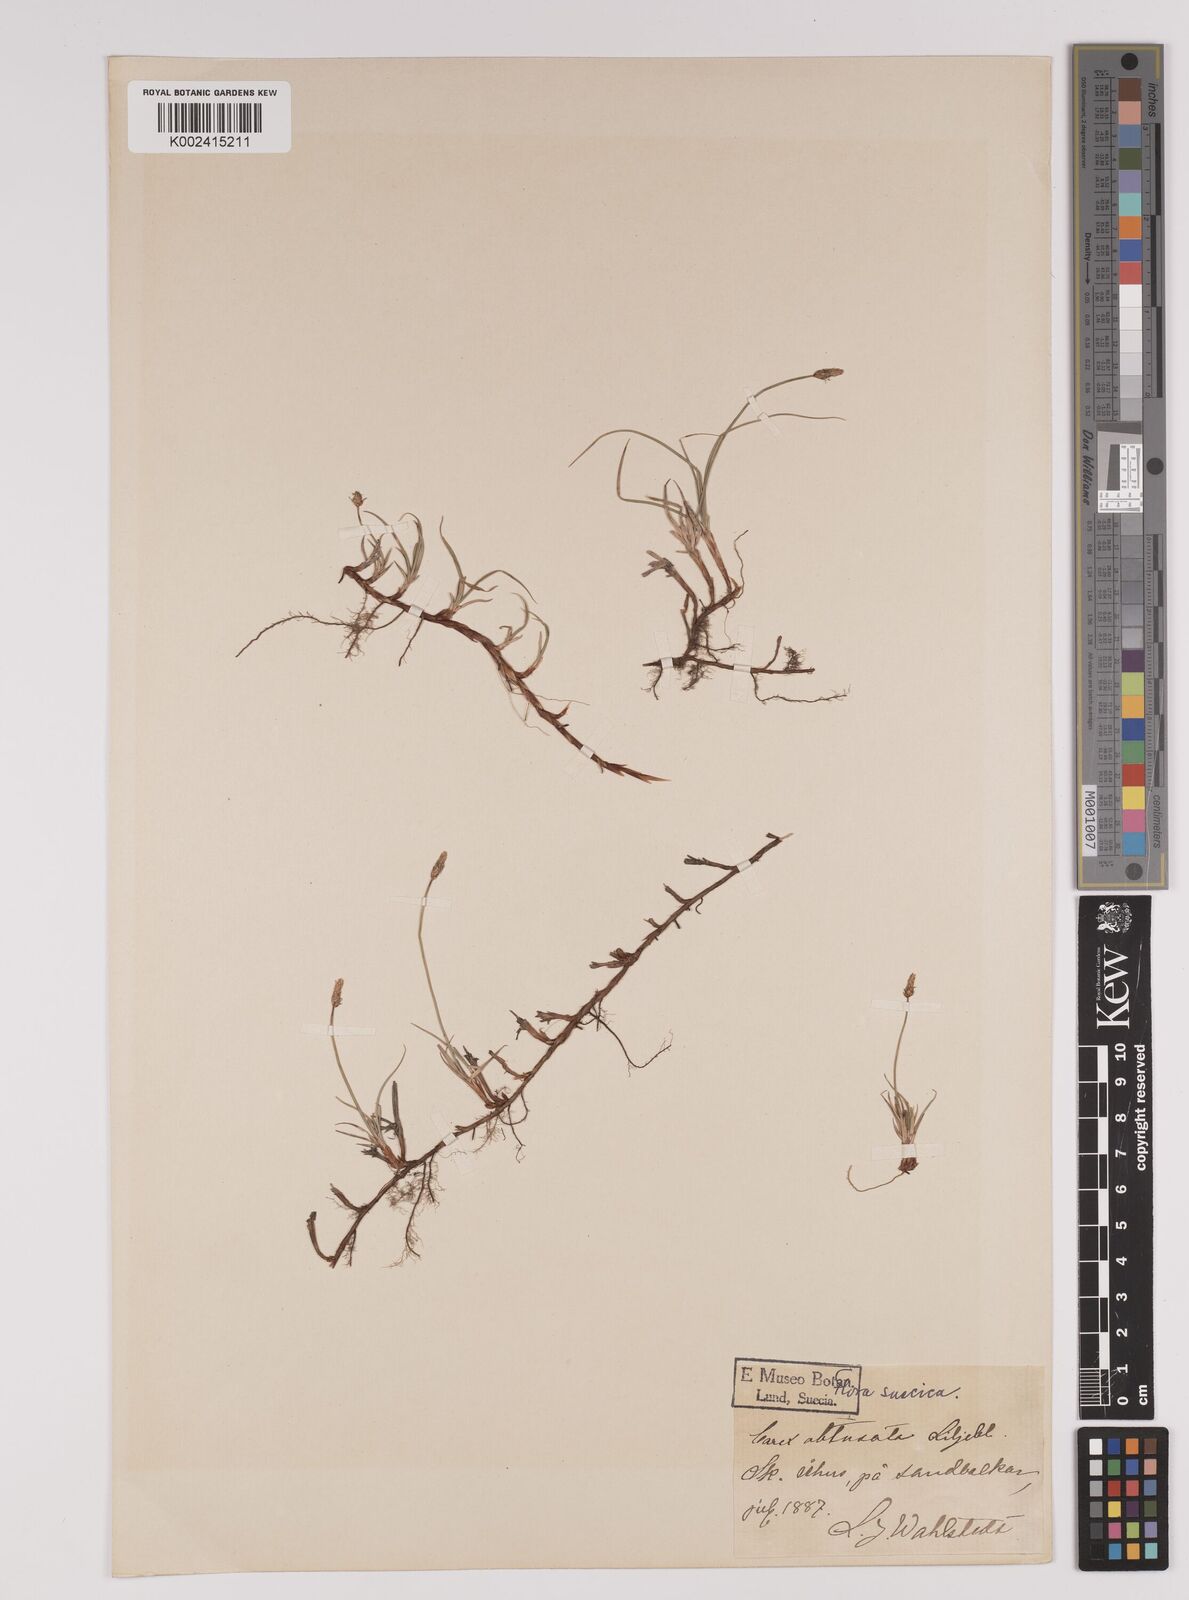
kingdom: Plantae
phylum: Tracheophyta
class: Liliopsida
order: Poales
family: Cyperaceae
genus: Carex
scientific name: Carex obtusata
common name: Blunt sedge
